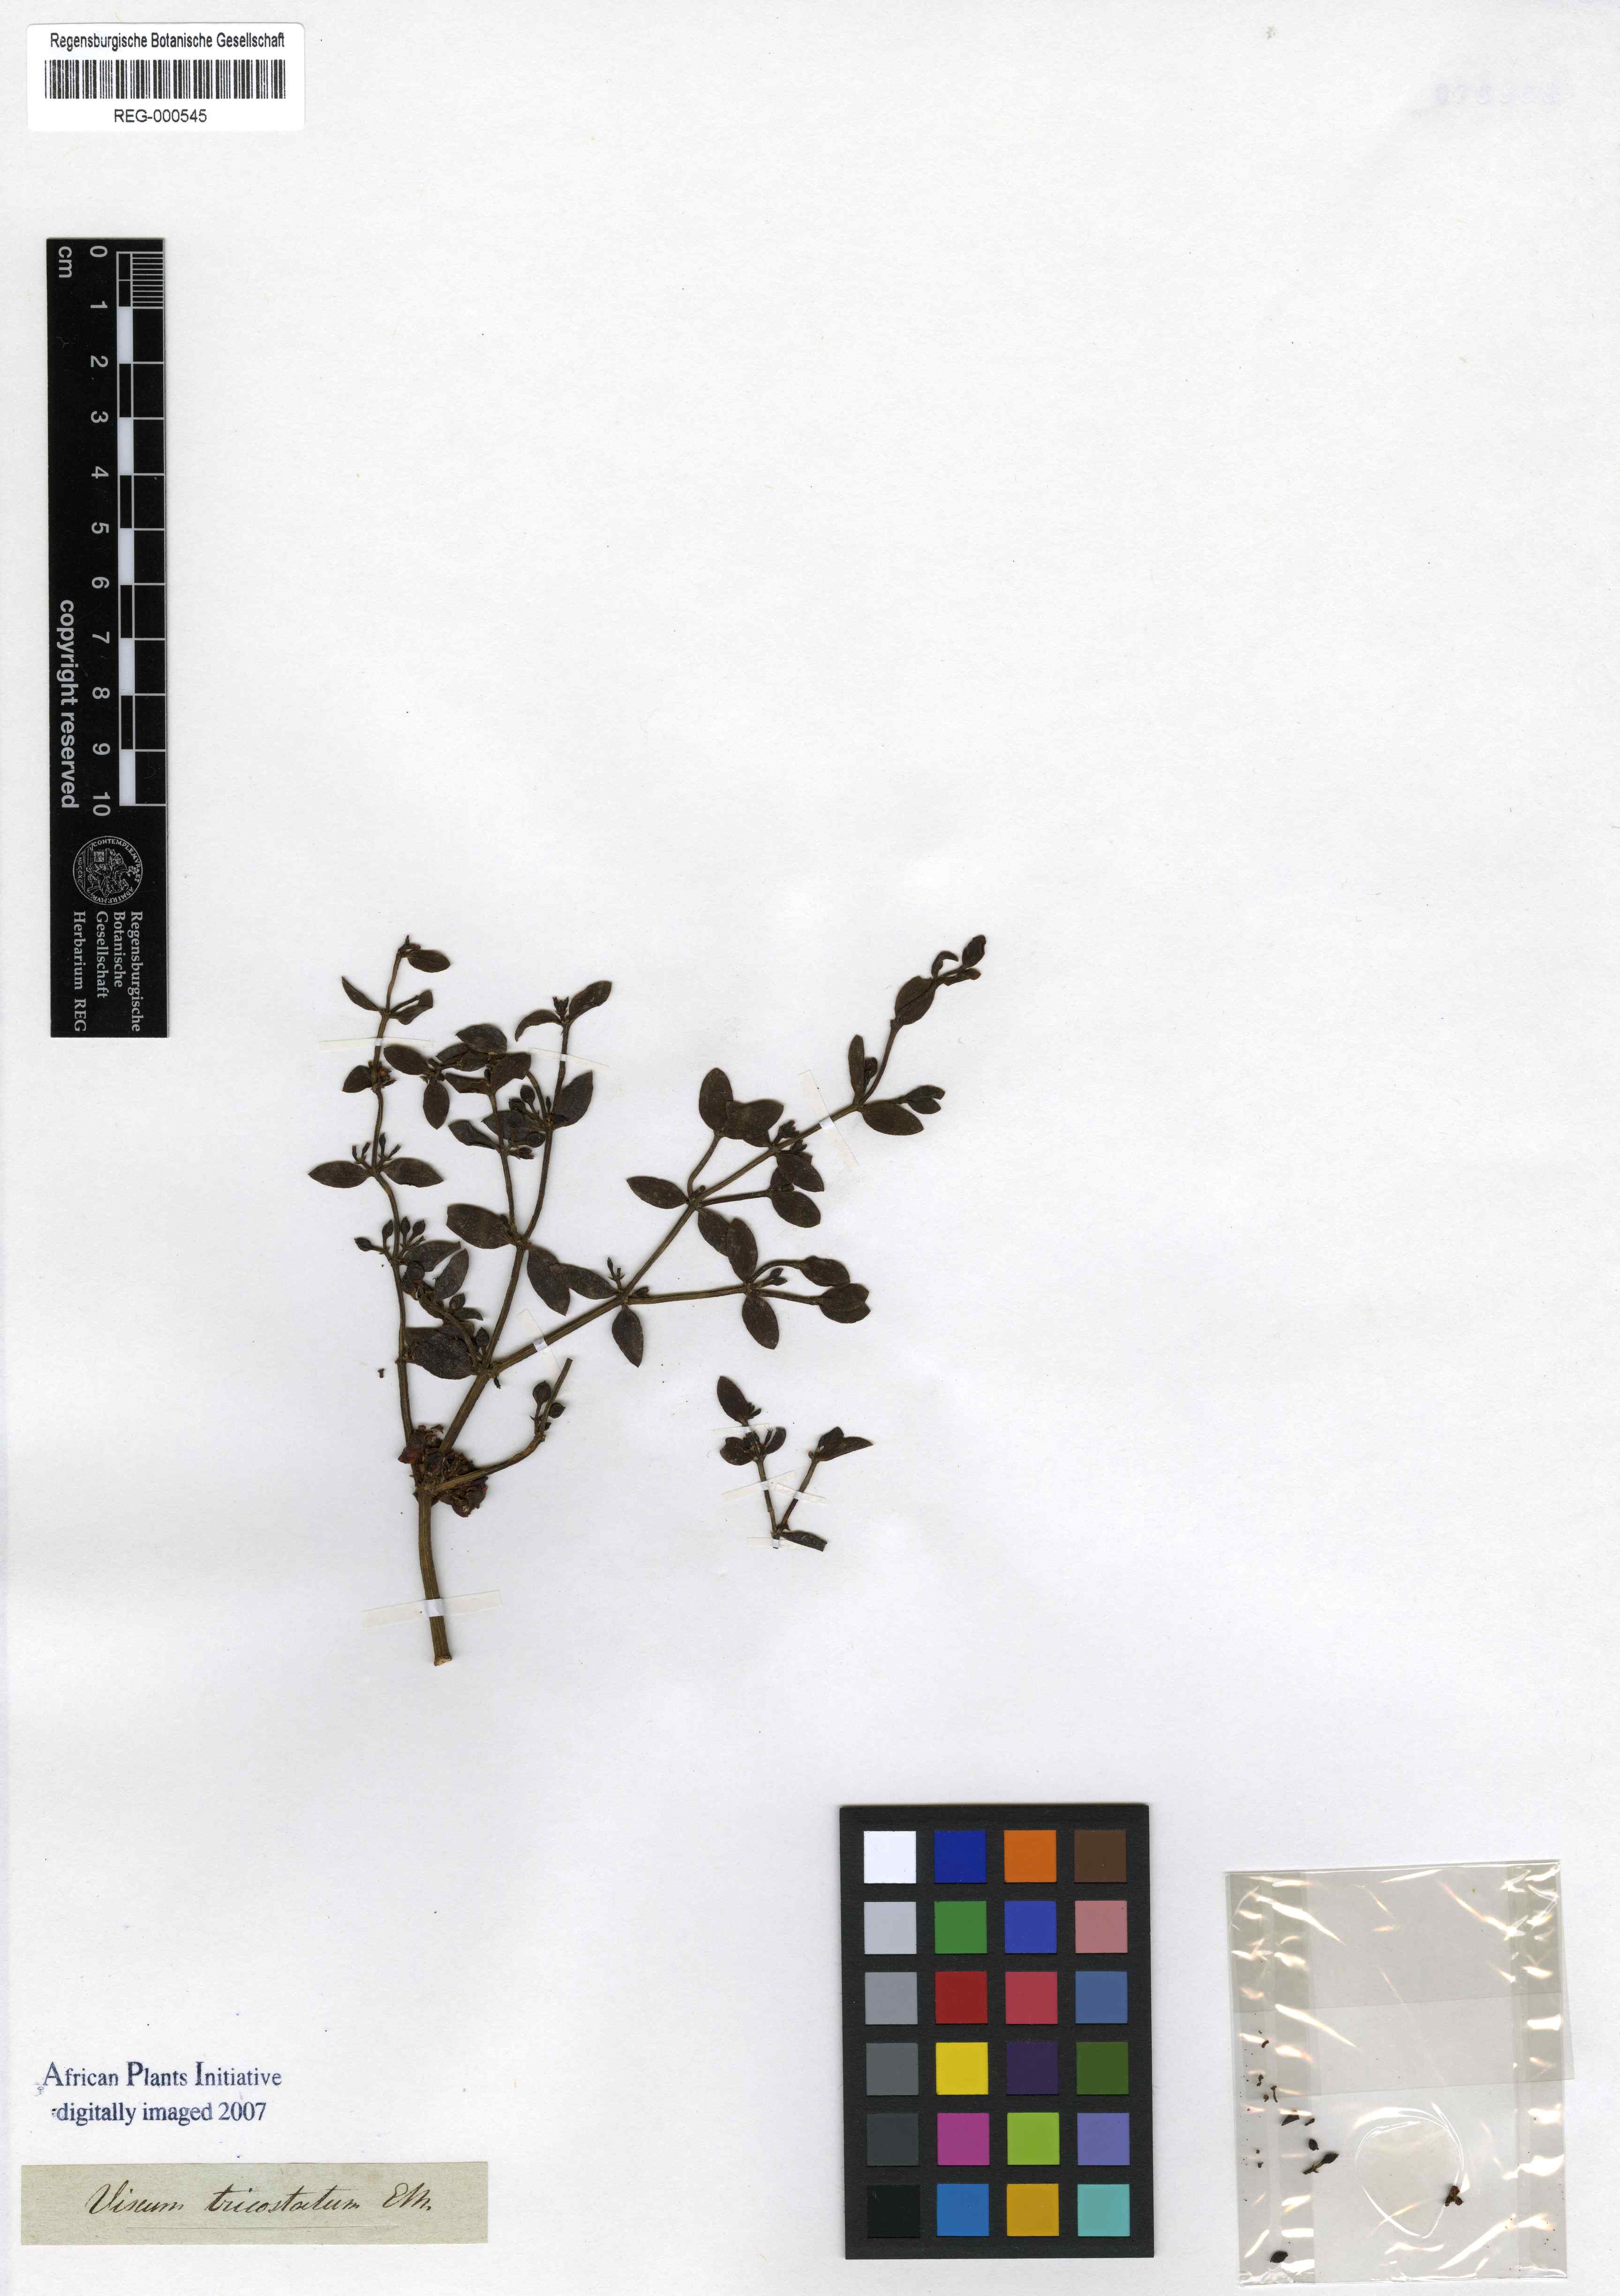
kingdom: Plantae
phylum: Tracheophyta
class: Magnoliopsida
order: Santalales
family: Viscaceae
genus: Viscum
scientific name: Viscum rotundifolium
